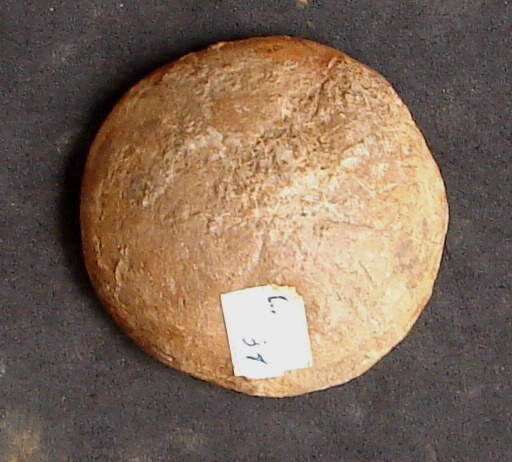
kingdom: Animalia
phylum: Echinodermata
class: Echinoidea
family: Galeropygidae
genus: Galeropygus
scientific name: Galeropygus
